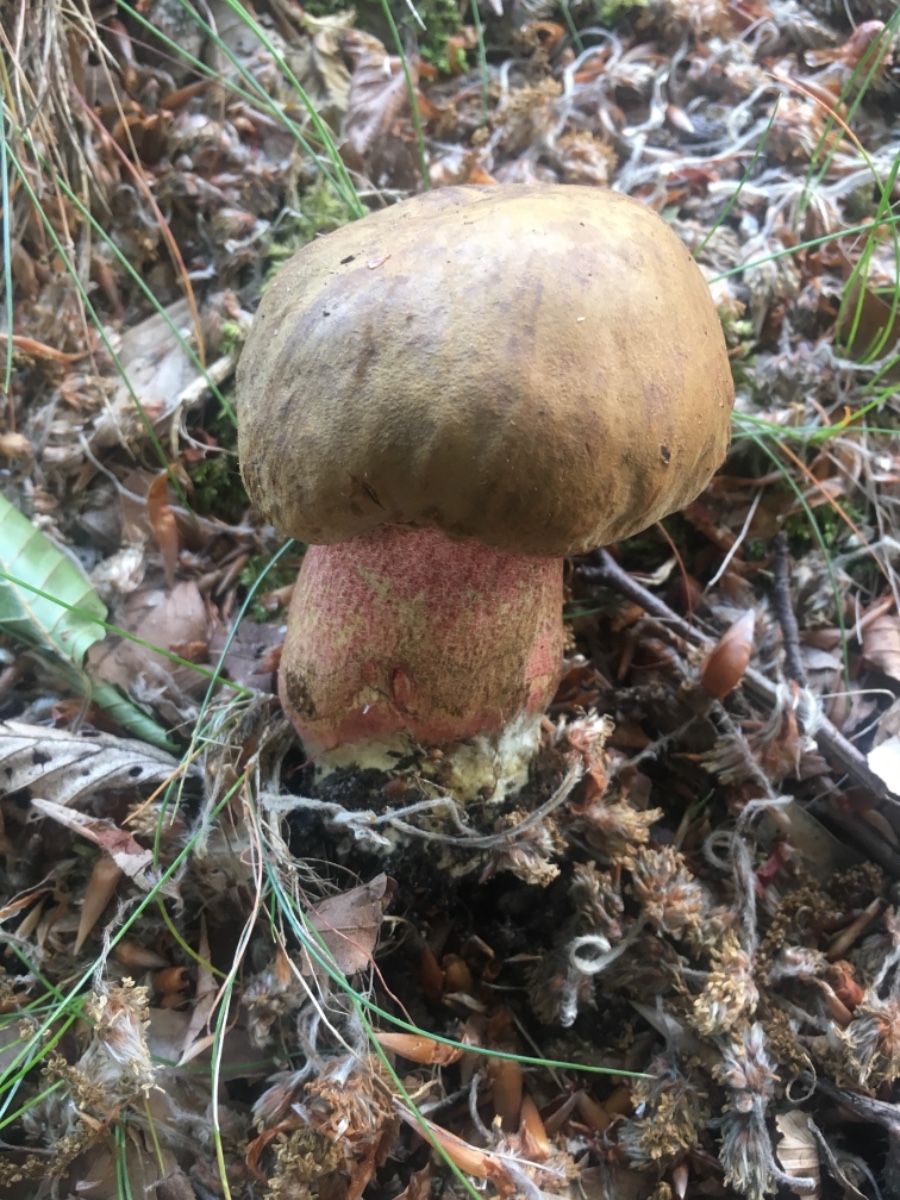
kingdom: Fungi
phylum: Basidiomycota
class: Agaricomycetes
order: Boletales
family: Boletaceae
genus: Neoboletus
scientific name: Neoboletus erythropus
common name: punktstokket indigorørhat
